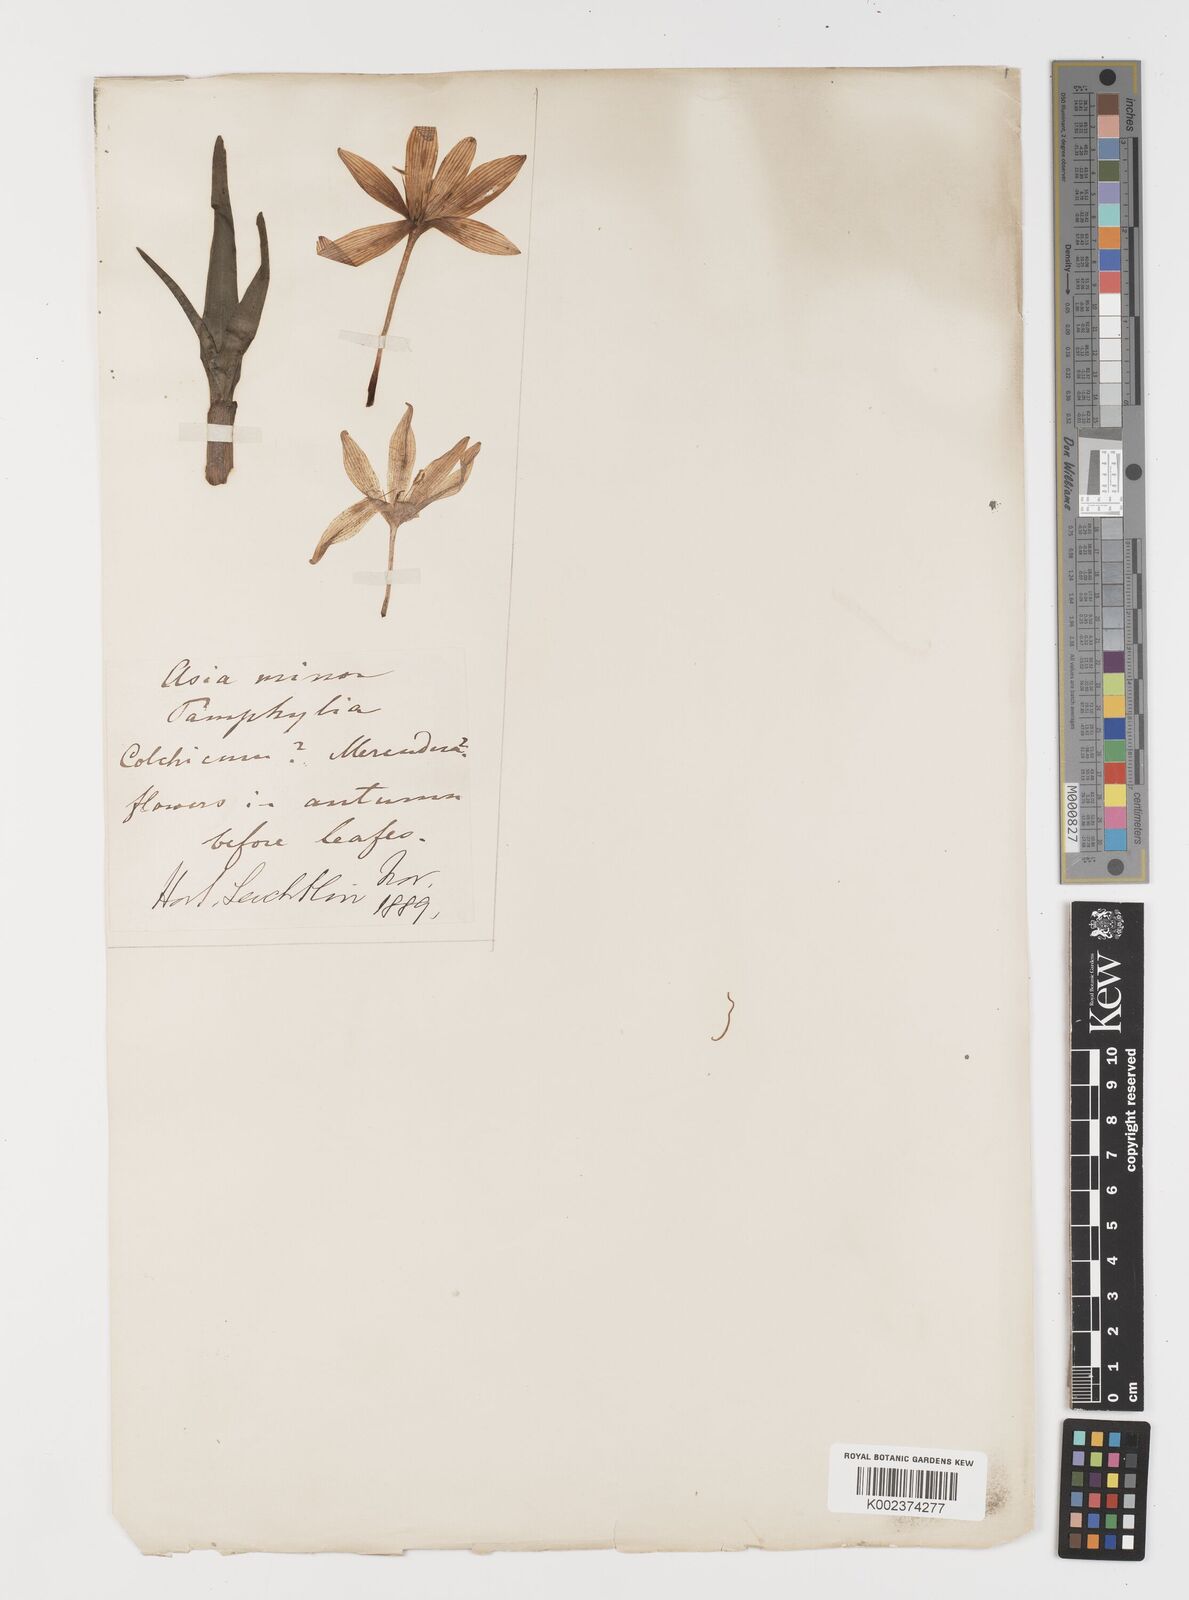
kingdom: Plantae
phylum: Tracheophyta
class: Liliopsida
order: Liliales
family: Colchicaceae
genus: Colchicum
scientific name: Colchicum
